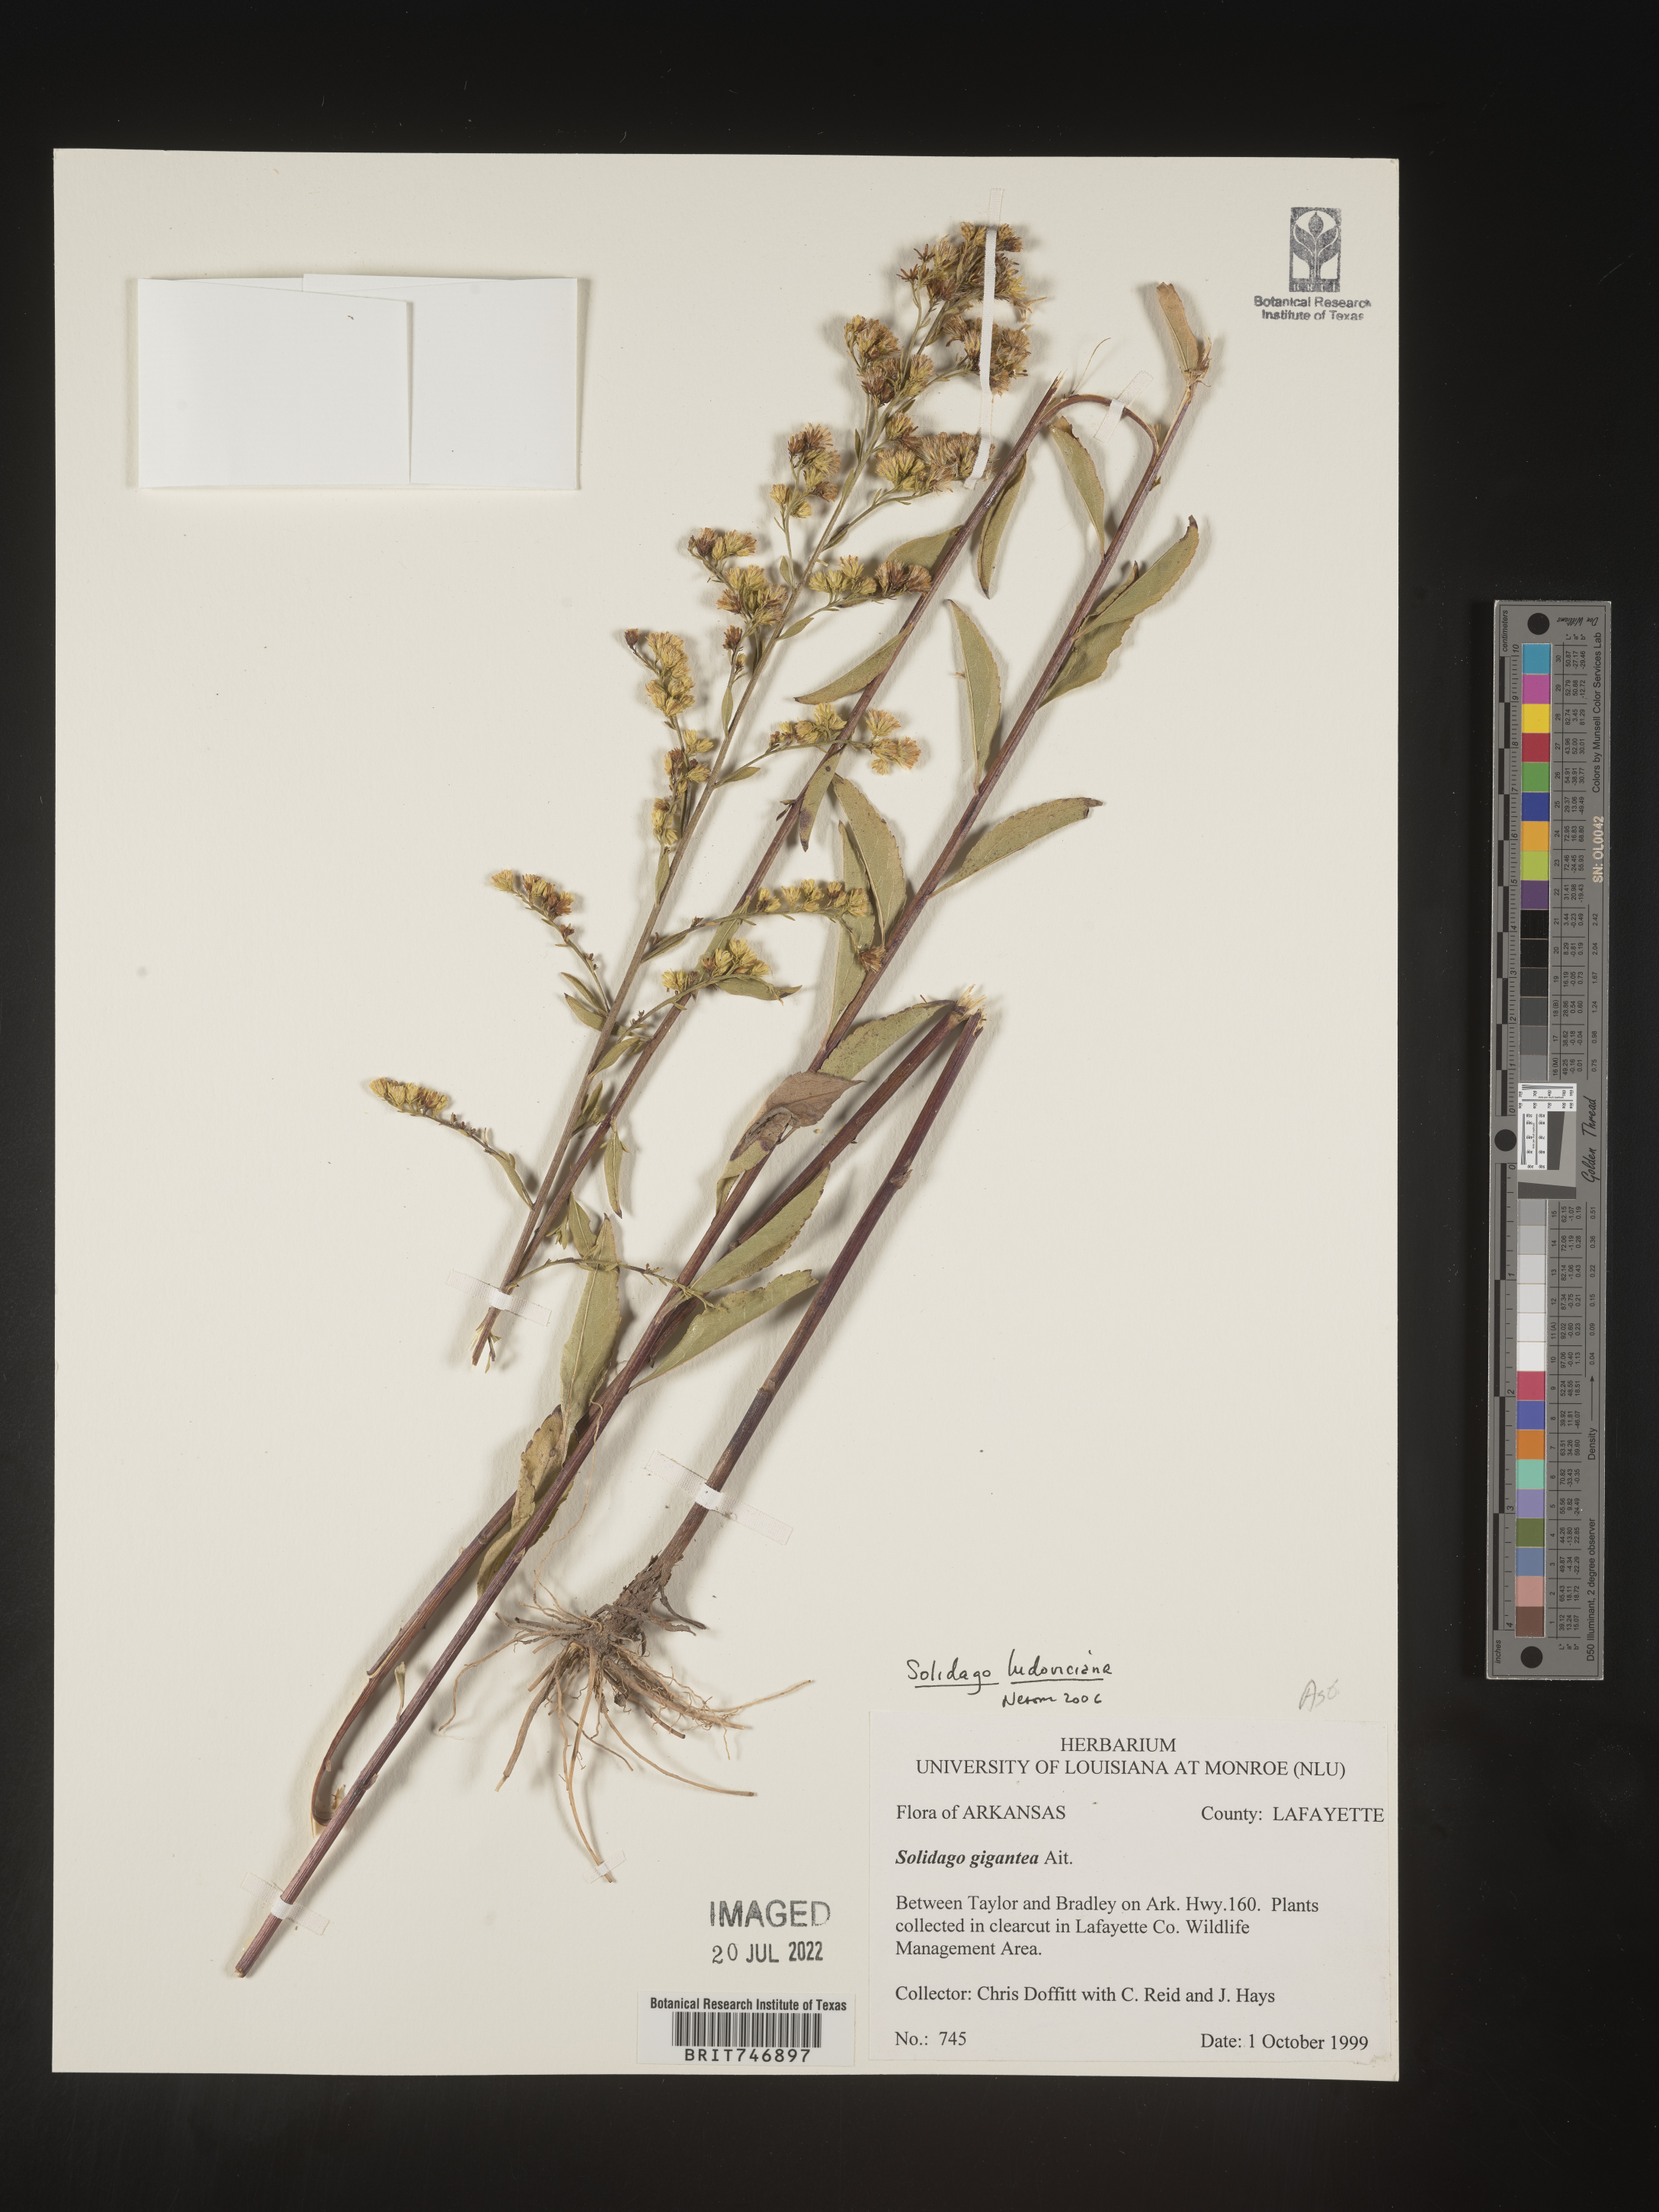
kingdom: Plantae
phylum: Tracheophyta
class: Magnoliopsida
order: Asterales
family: Asteraceae
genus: Solidago
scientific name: Solidago ludoviciana
